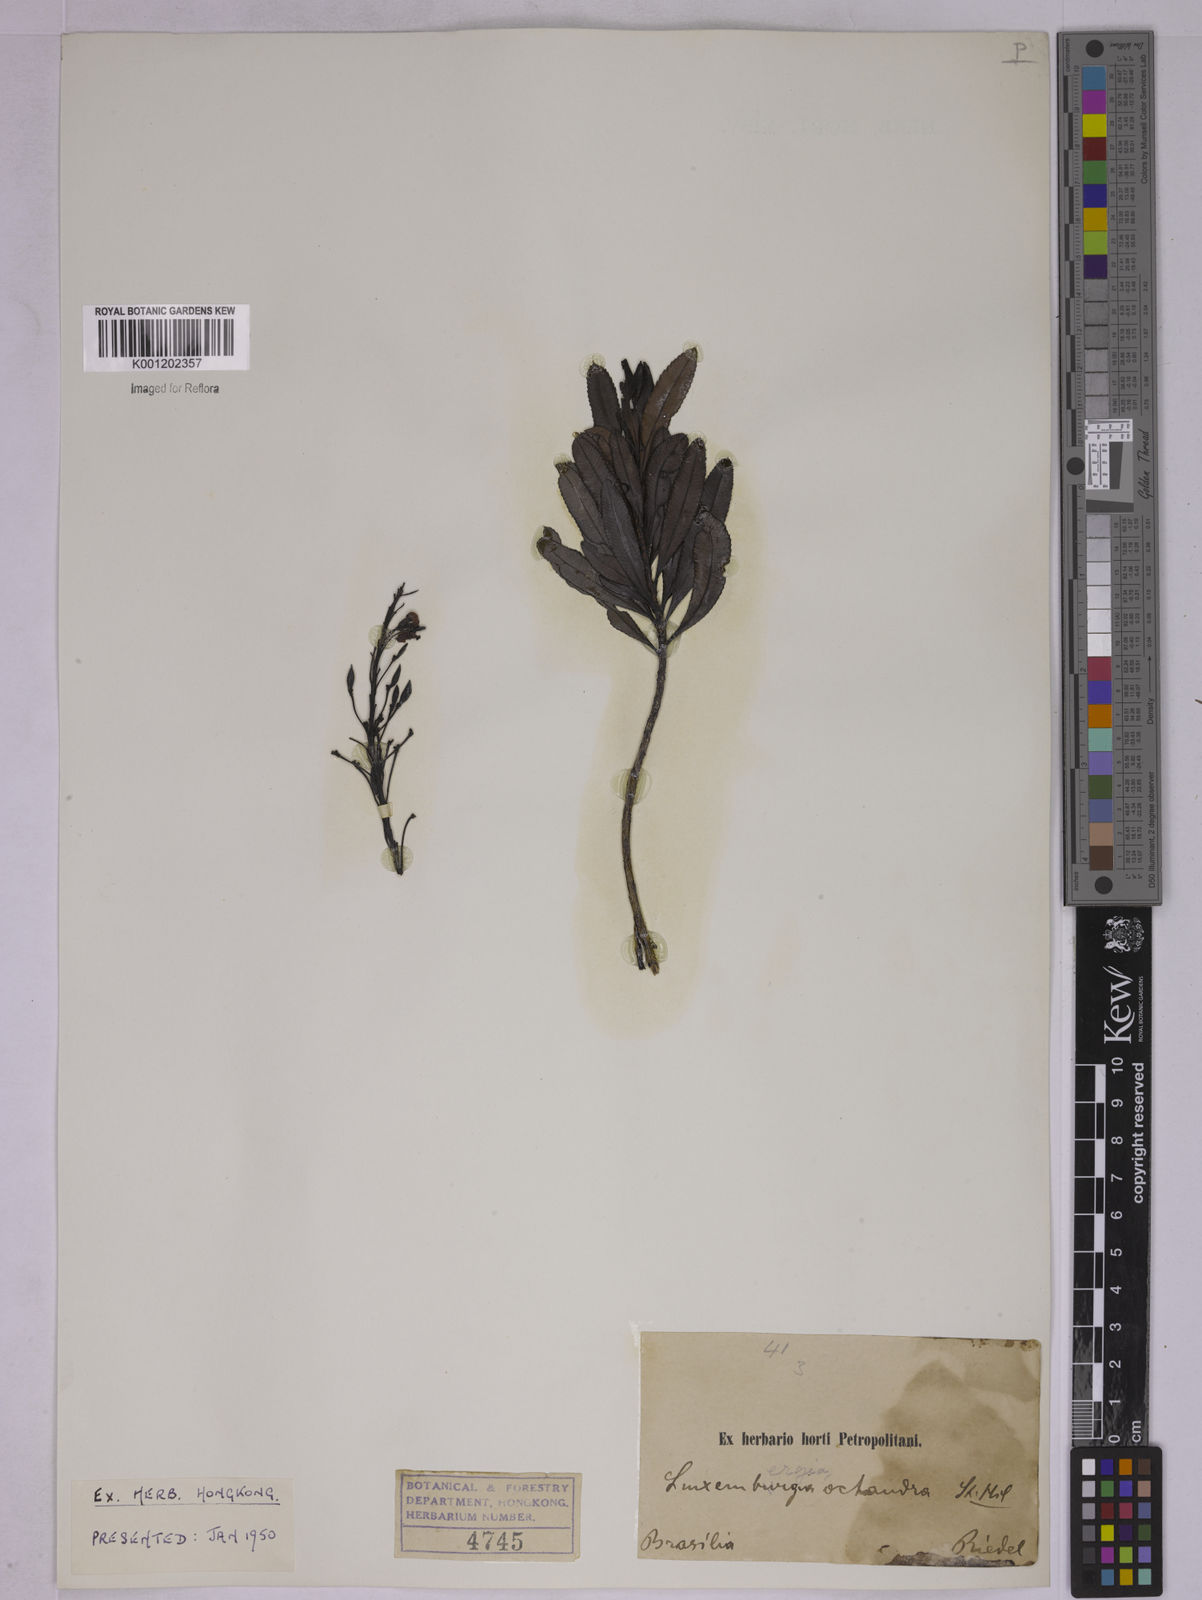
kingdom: Plantae
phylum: Tracheophyta
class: Magnoliopsida
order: Malpighiales
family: Ochnaceae
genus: Luxemburgia
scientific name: Luxemburgia octandra
